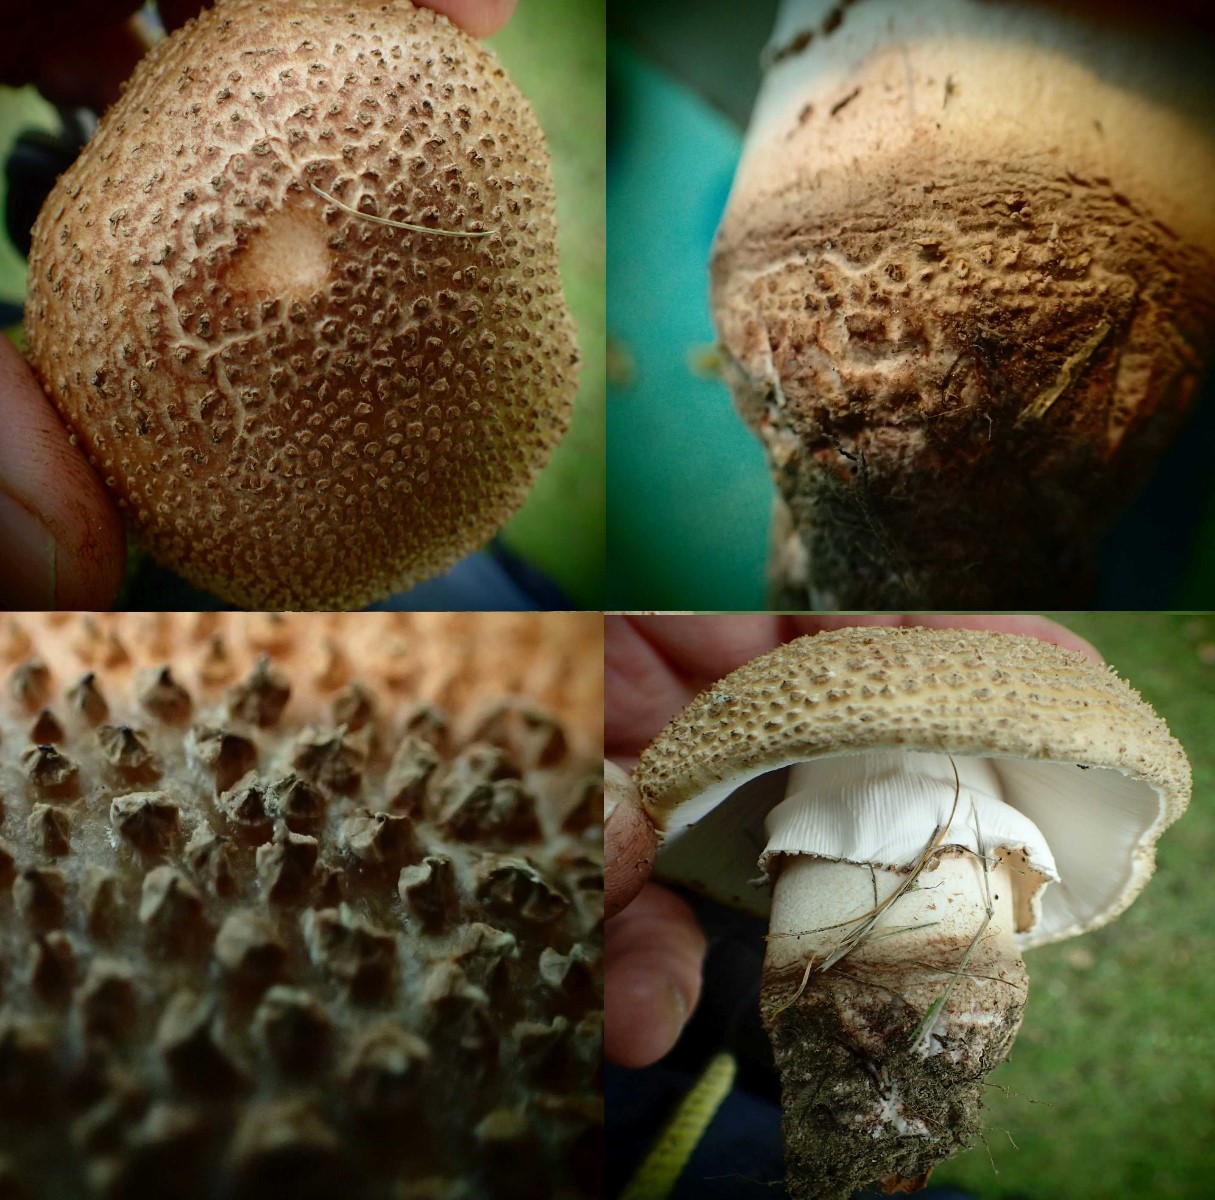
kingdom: Fungi
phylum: Basidiomycota
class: Agaricomycetes
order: Agaricales
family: Amanitaceae
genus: Amanita
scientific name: Amanita rubescens
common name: rødmende fluesvamp
